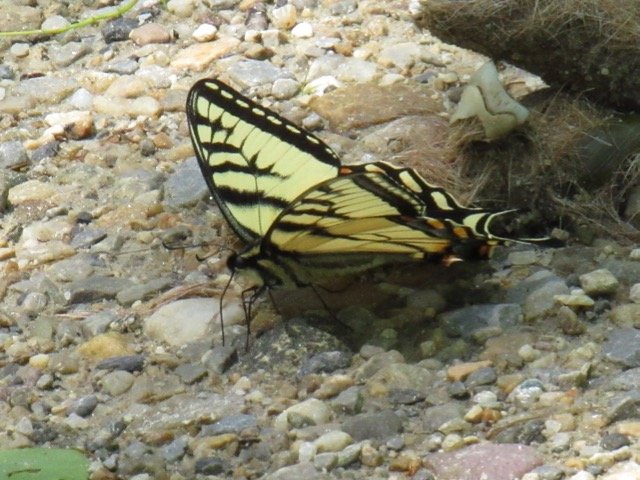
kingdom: Animalia
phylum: Arthropoda
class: Insecta
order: Lepidoptera
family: Papilionidae
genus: Pterourus
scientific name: Pterourus canadensis
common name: Canadian Tiger Swallowtail
